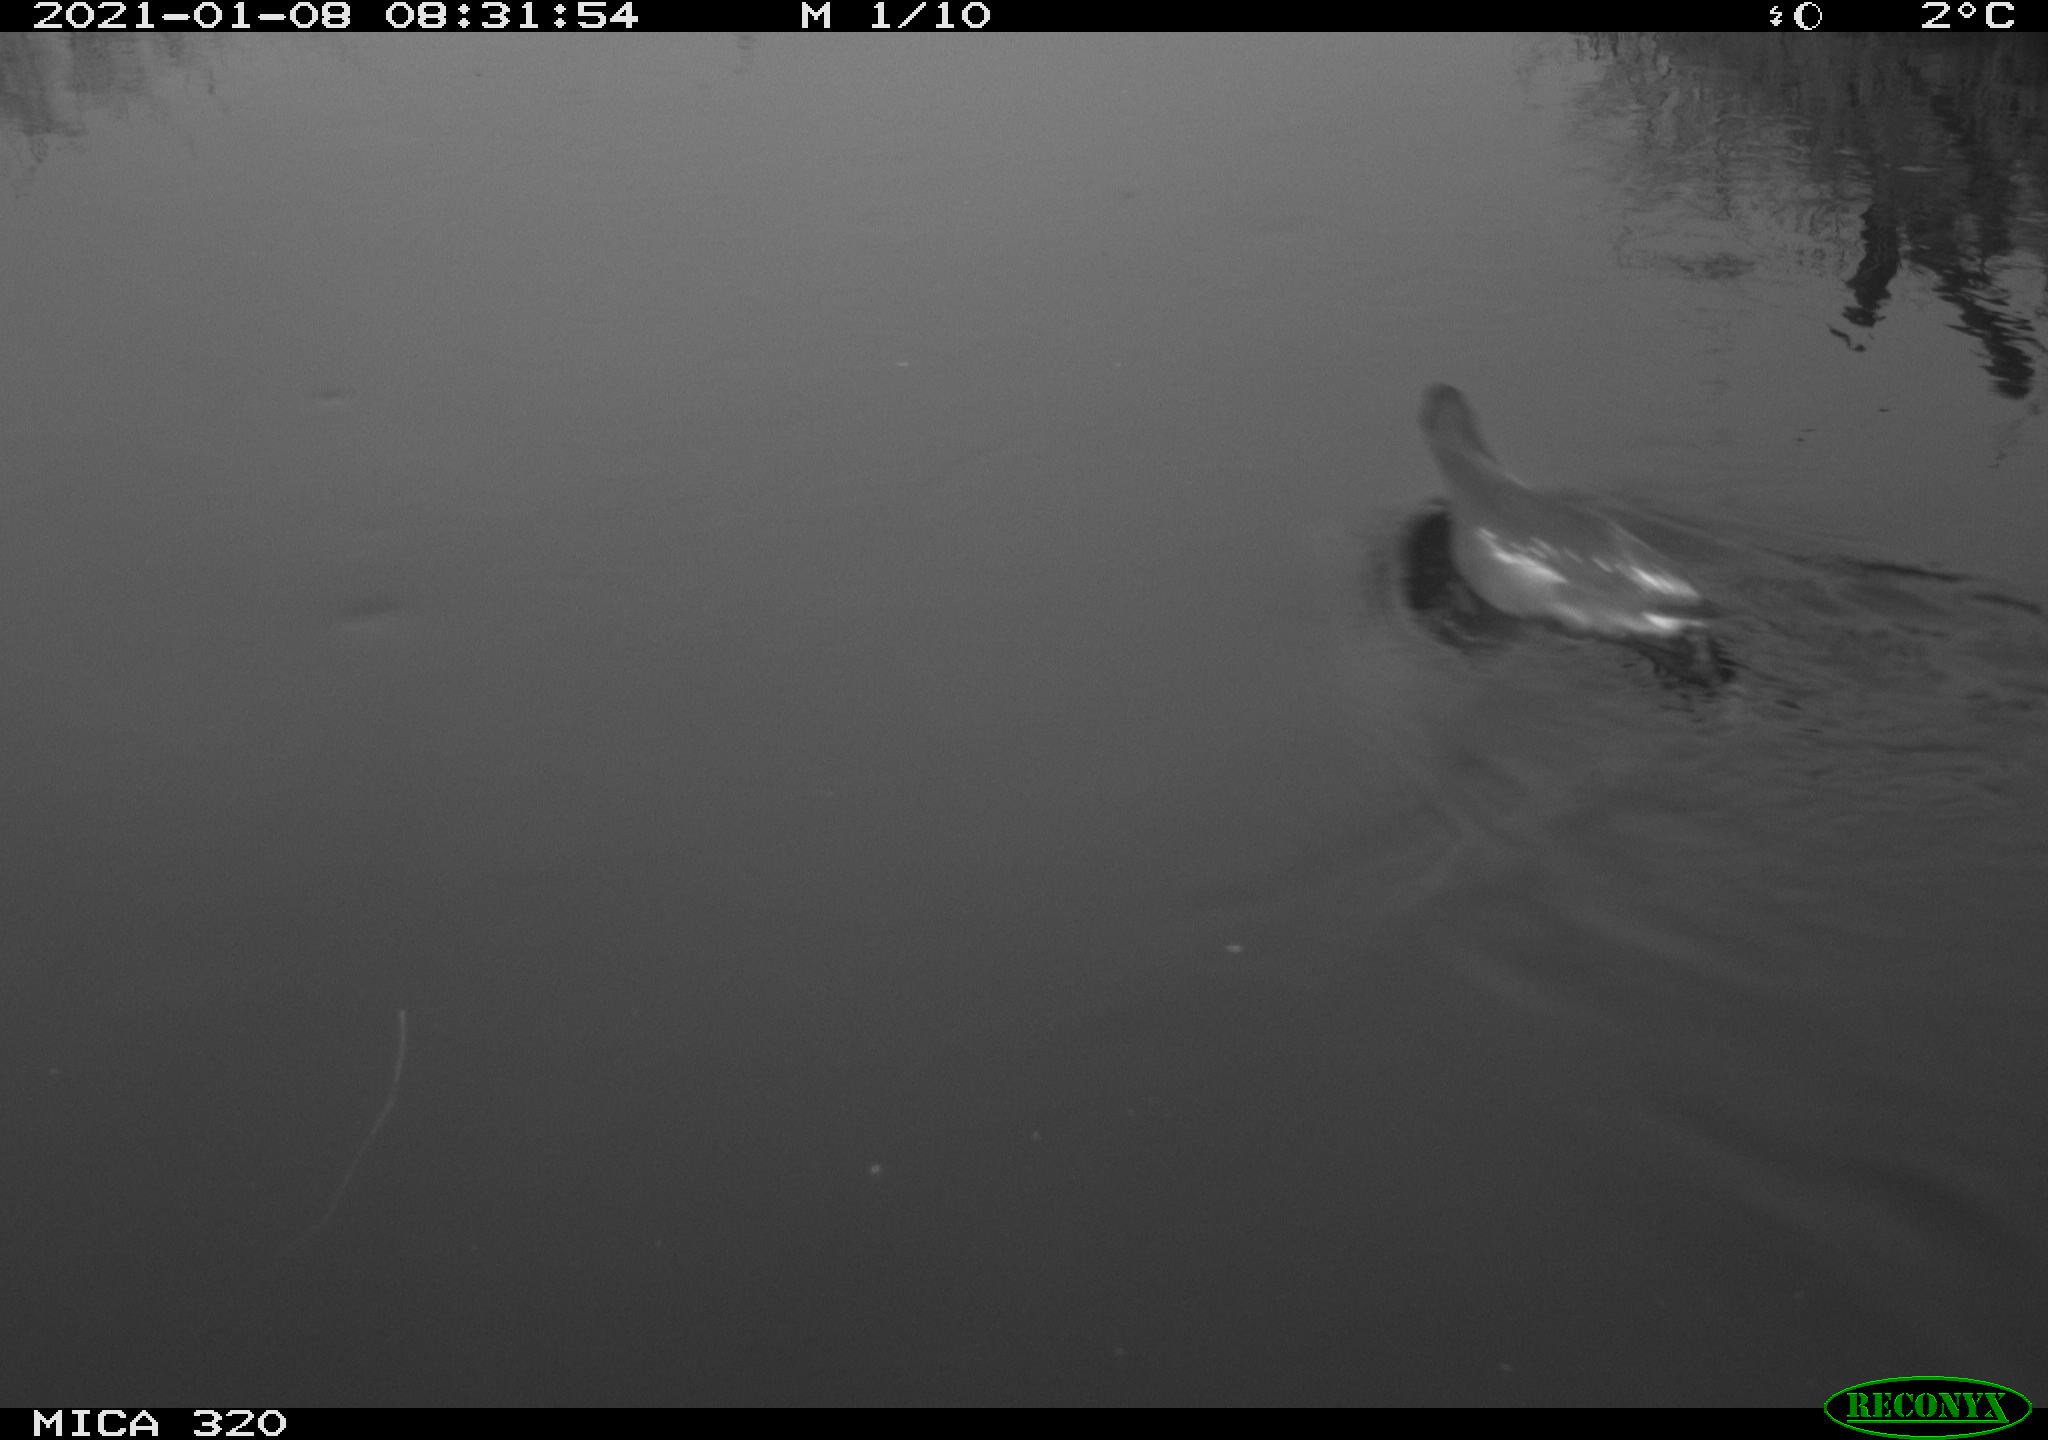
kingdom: Animalia
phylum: Chordata
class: Aves
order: Gruiformes
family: Rallidae
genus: Gallinula
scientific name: Gallinula chloropus
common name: Common moorhen
